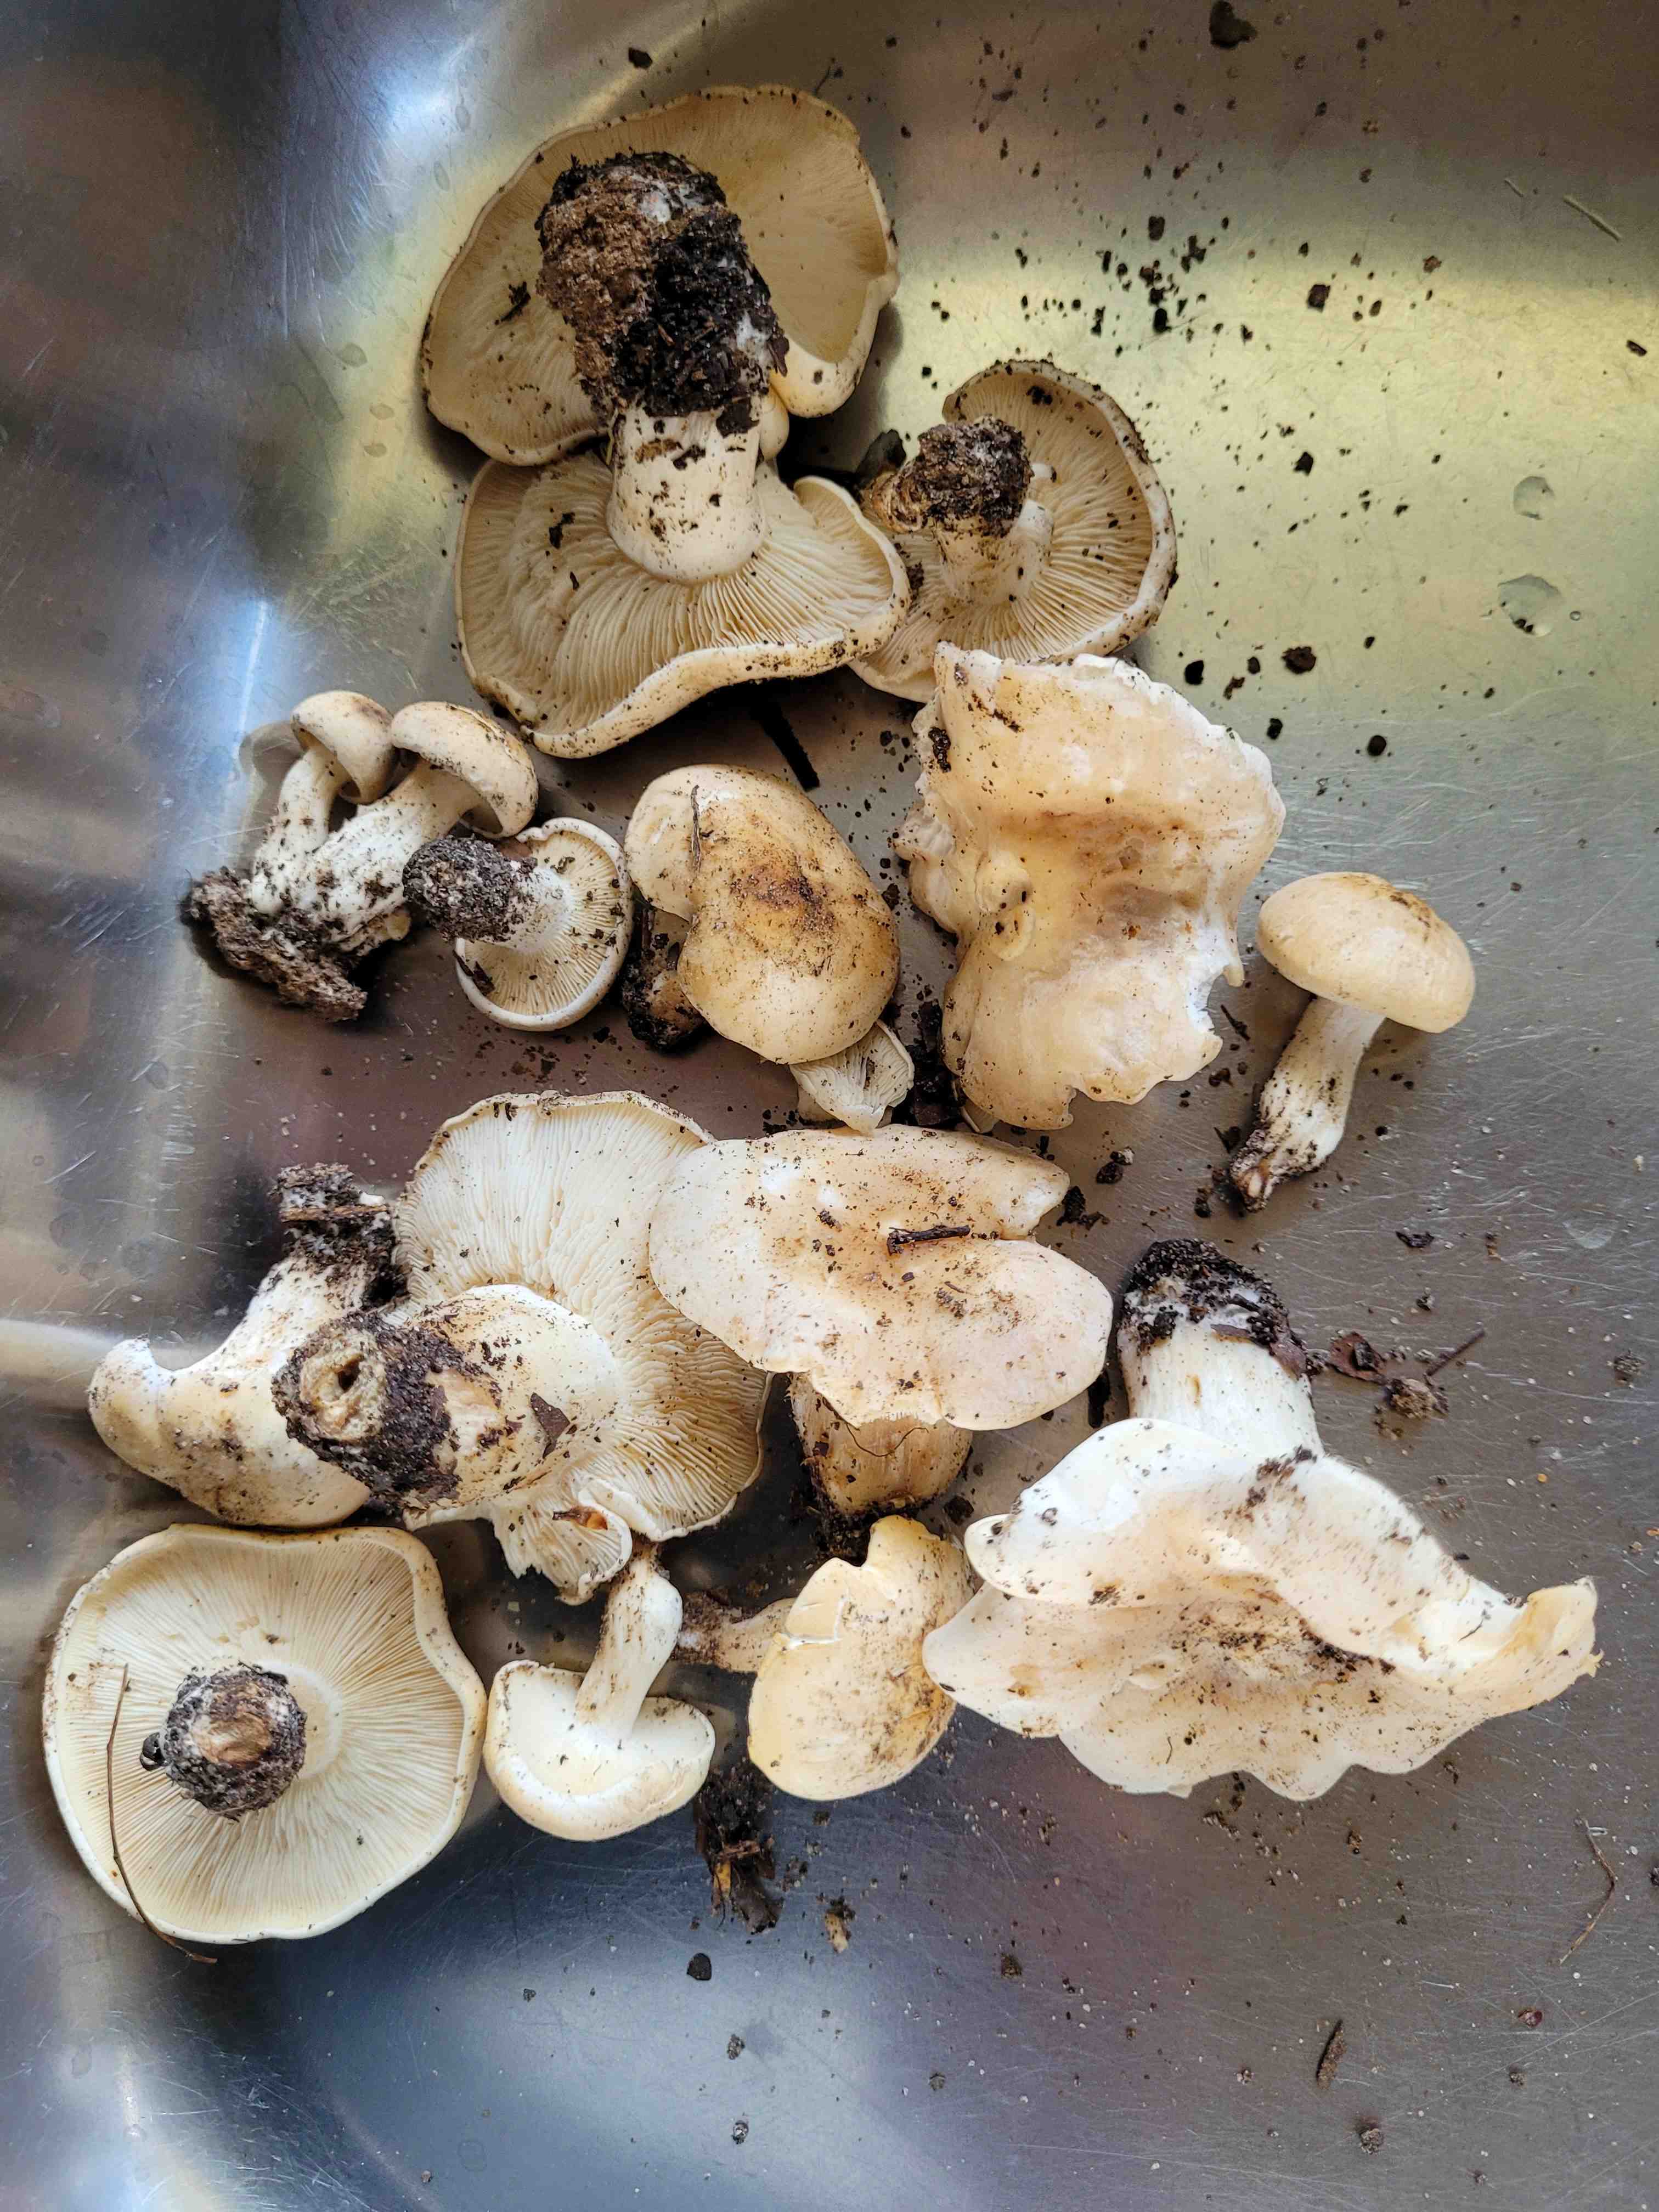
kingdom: Fungi
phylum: Basidiomycota
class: Agaricomycetes
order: Agaricales
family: Lyophyllaceae
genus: Calocybe
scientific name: Calocybe gambosa
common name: vårmusseron
